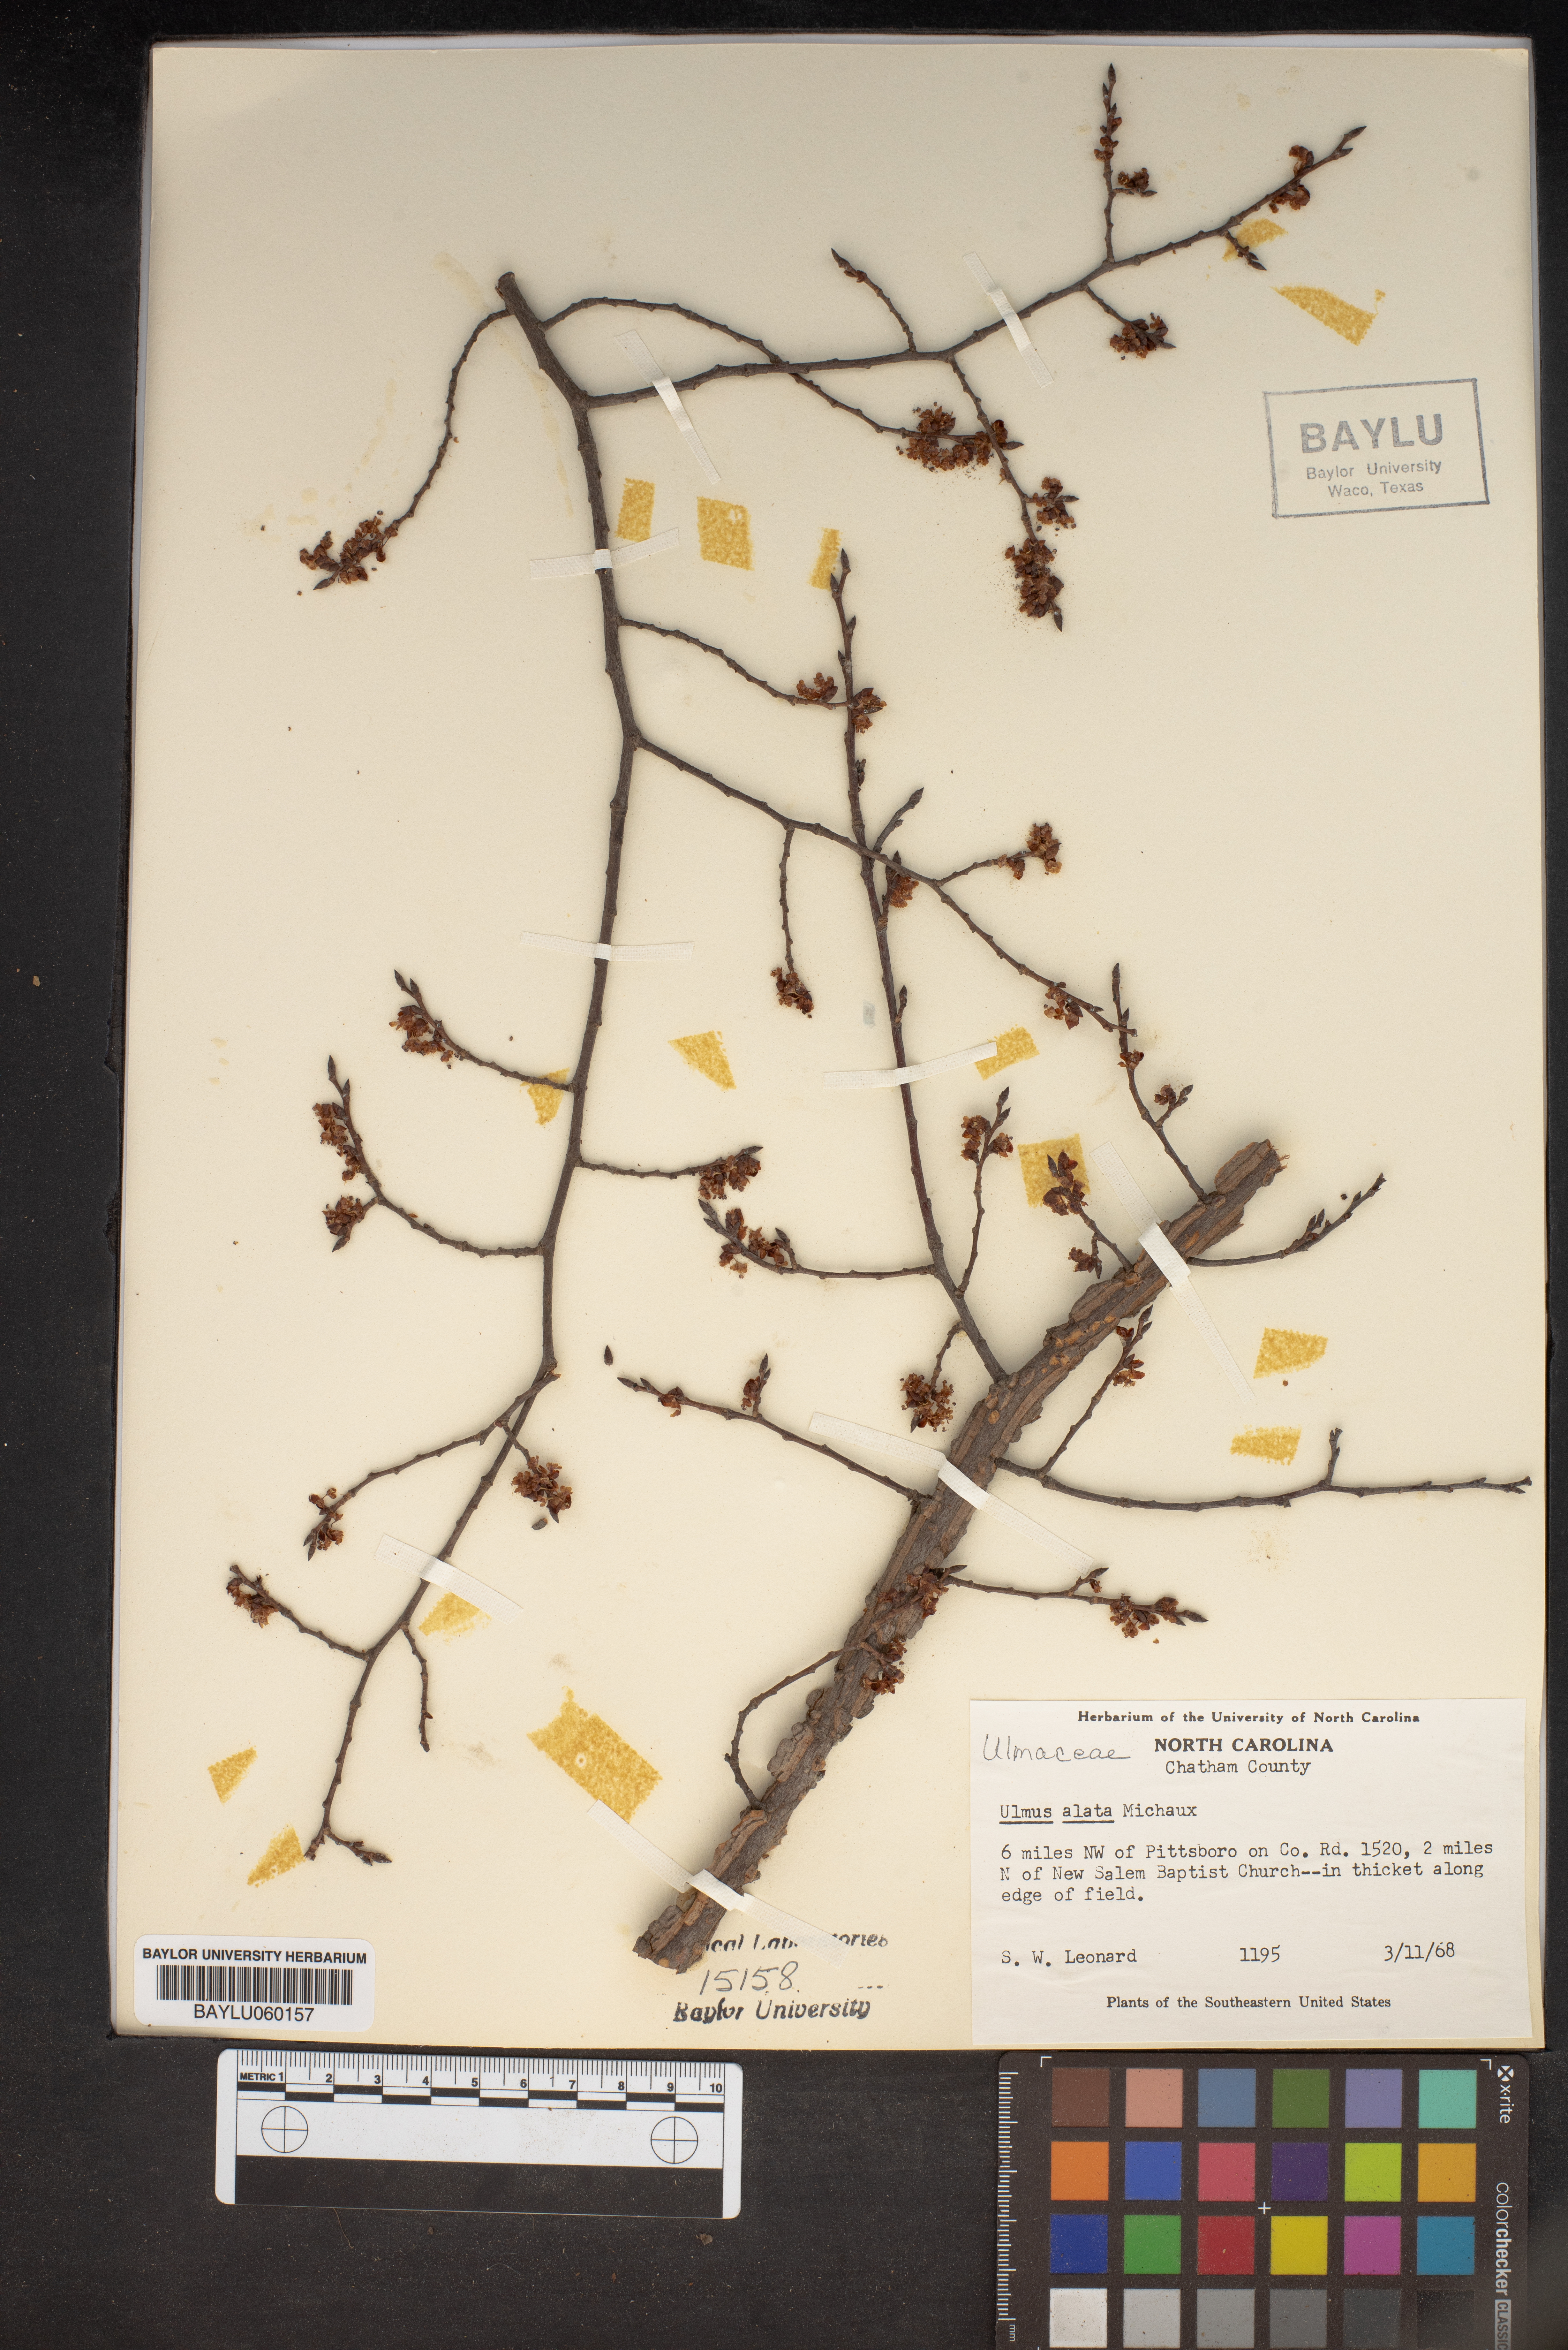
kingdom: Plantae
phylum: Tracheophyta
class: Magnoliopsida
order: Rosales
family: Ulmaceae
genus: Ulmus
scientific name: Ulmus alata
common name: Winged elm
